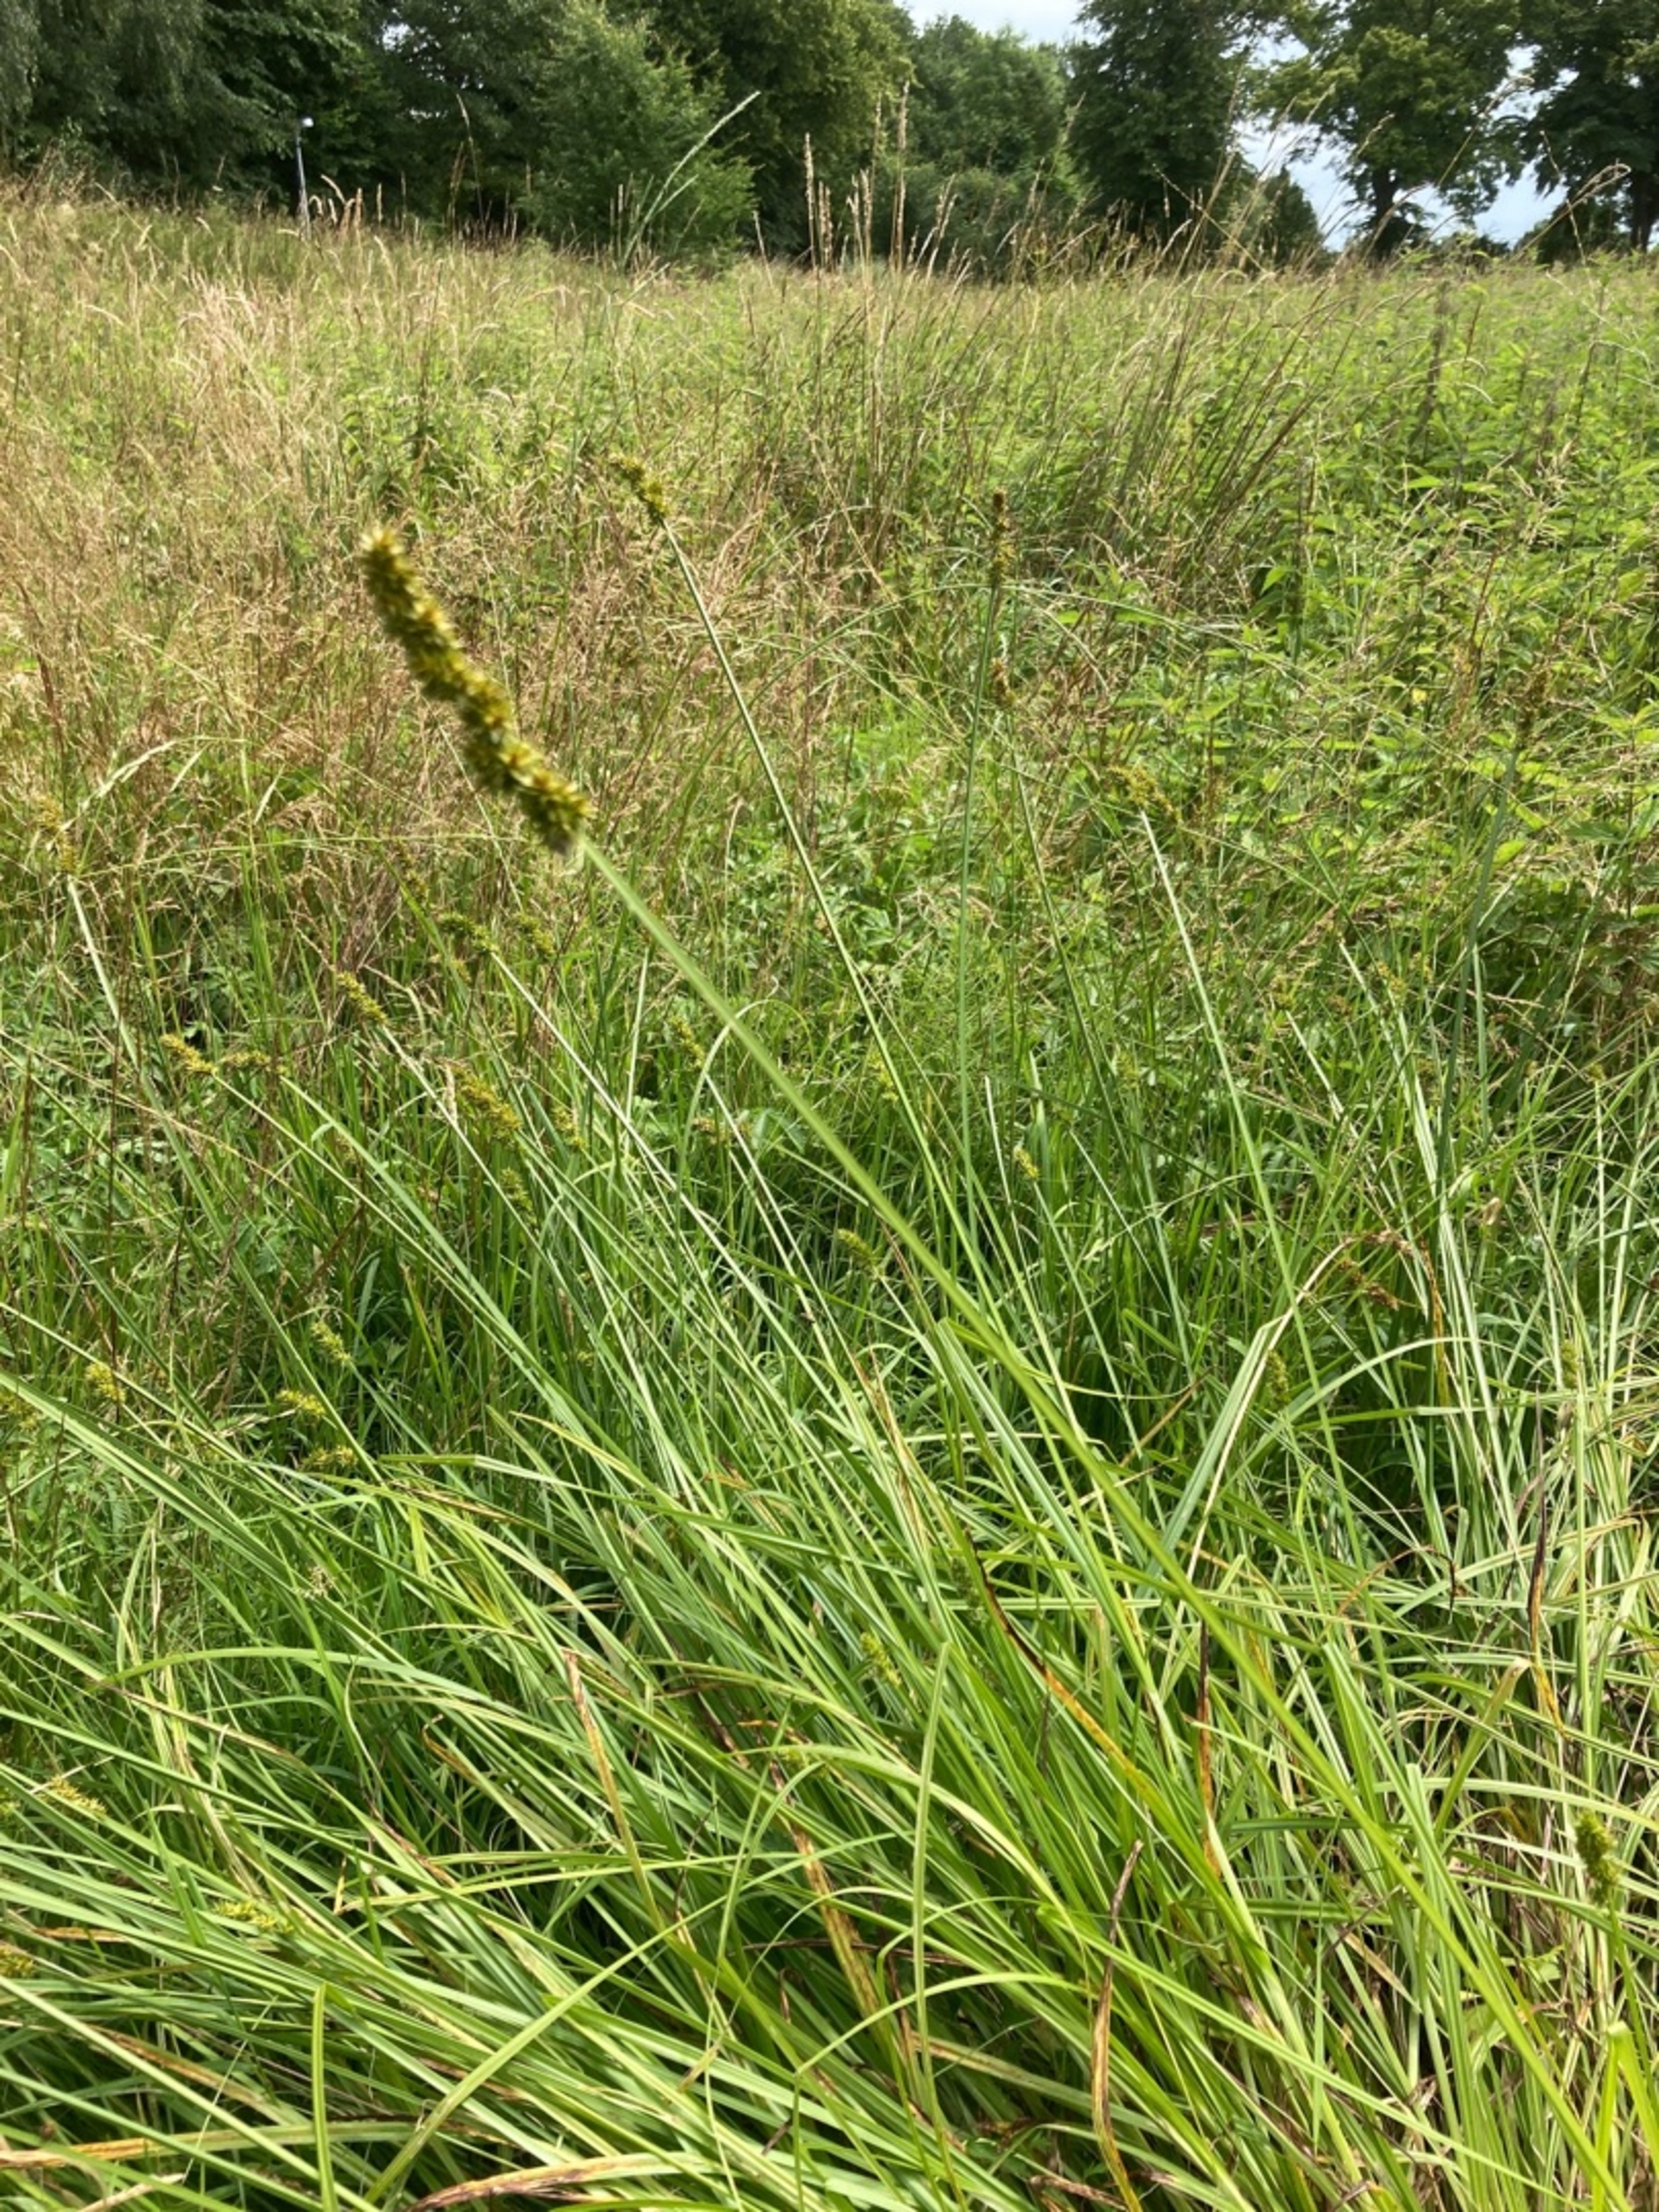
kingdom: Plantae
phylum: Tracheophyta
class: Liliopsida
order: Poales
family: Cyperaceae
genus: Carex
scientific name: Carex otrubae
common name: Sylt-star
